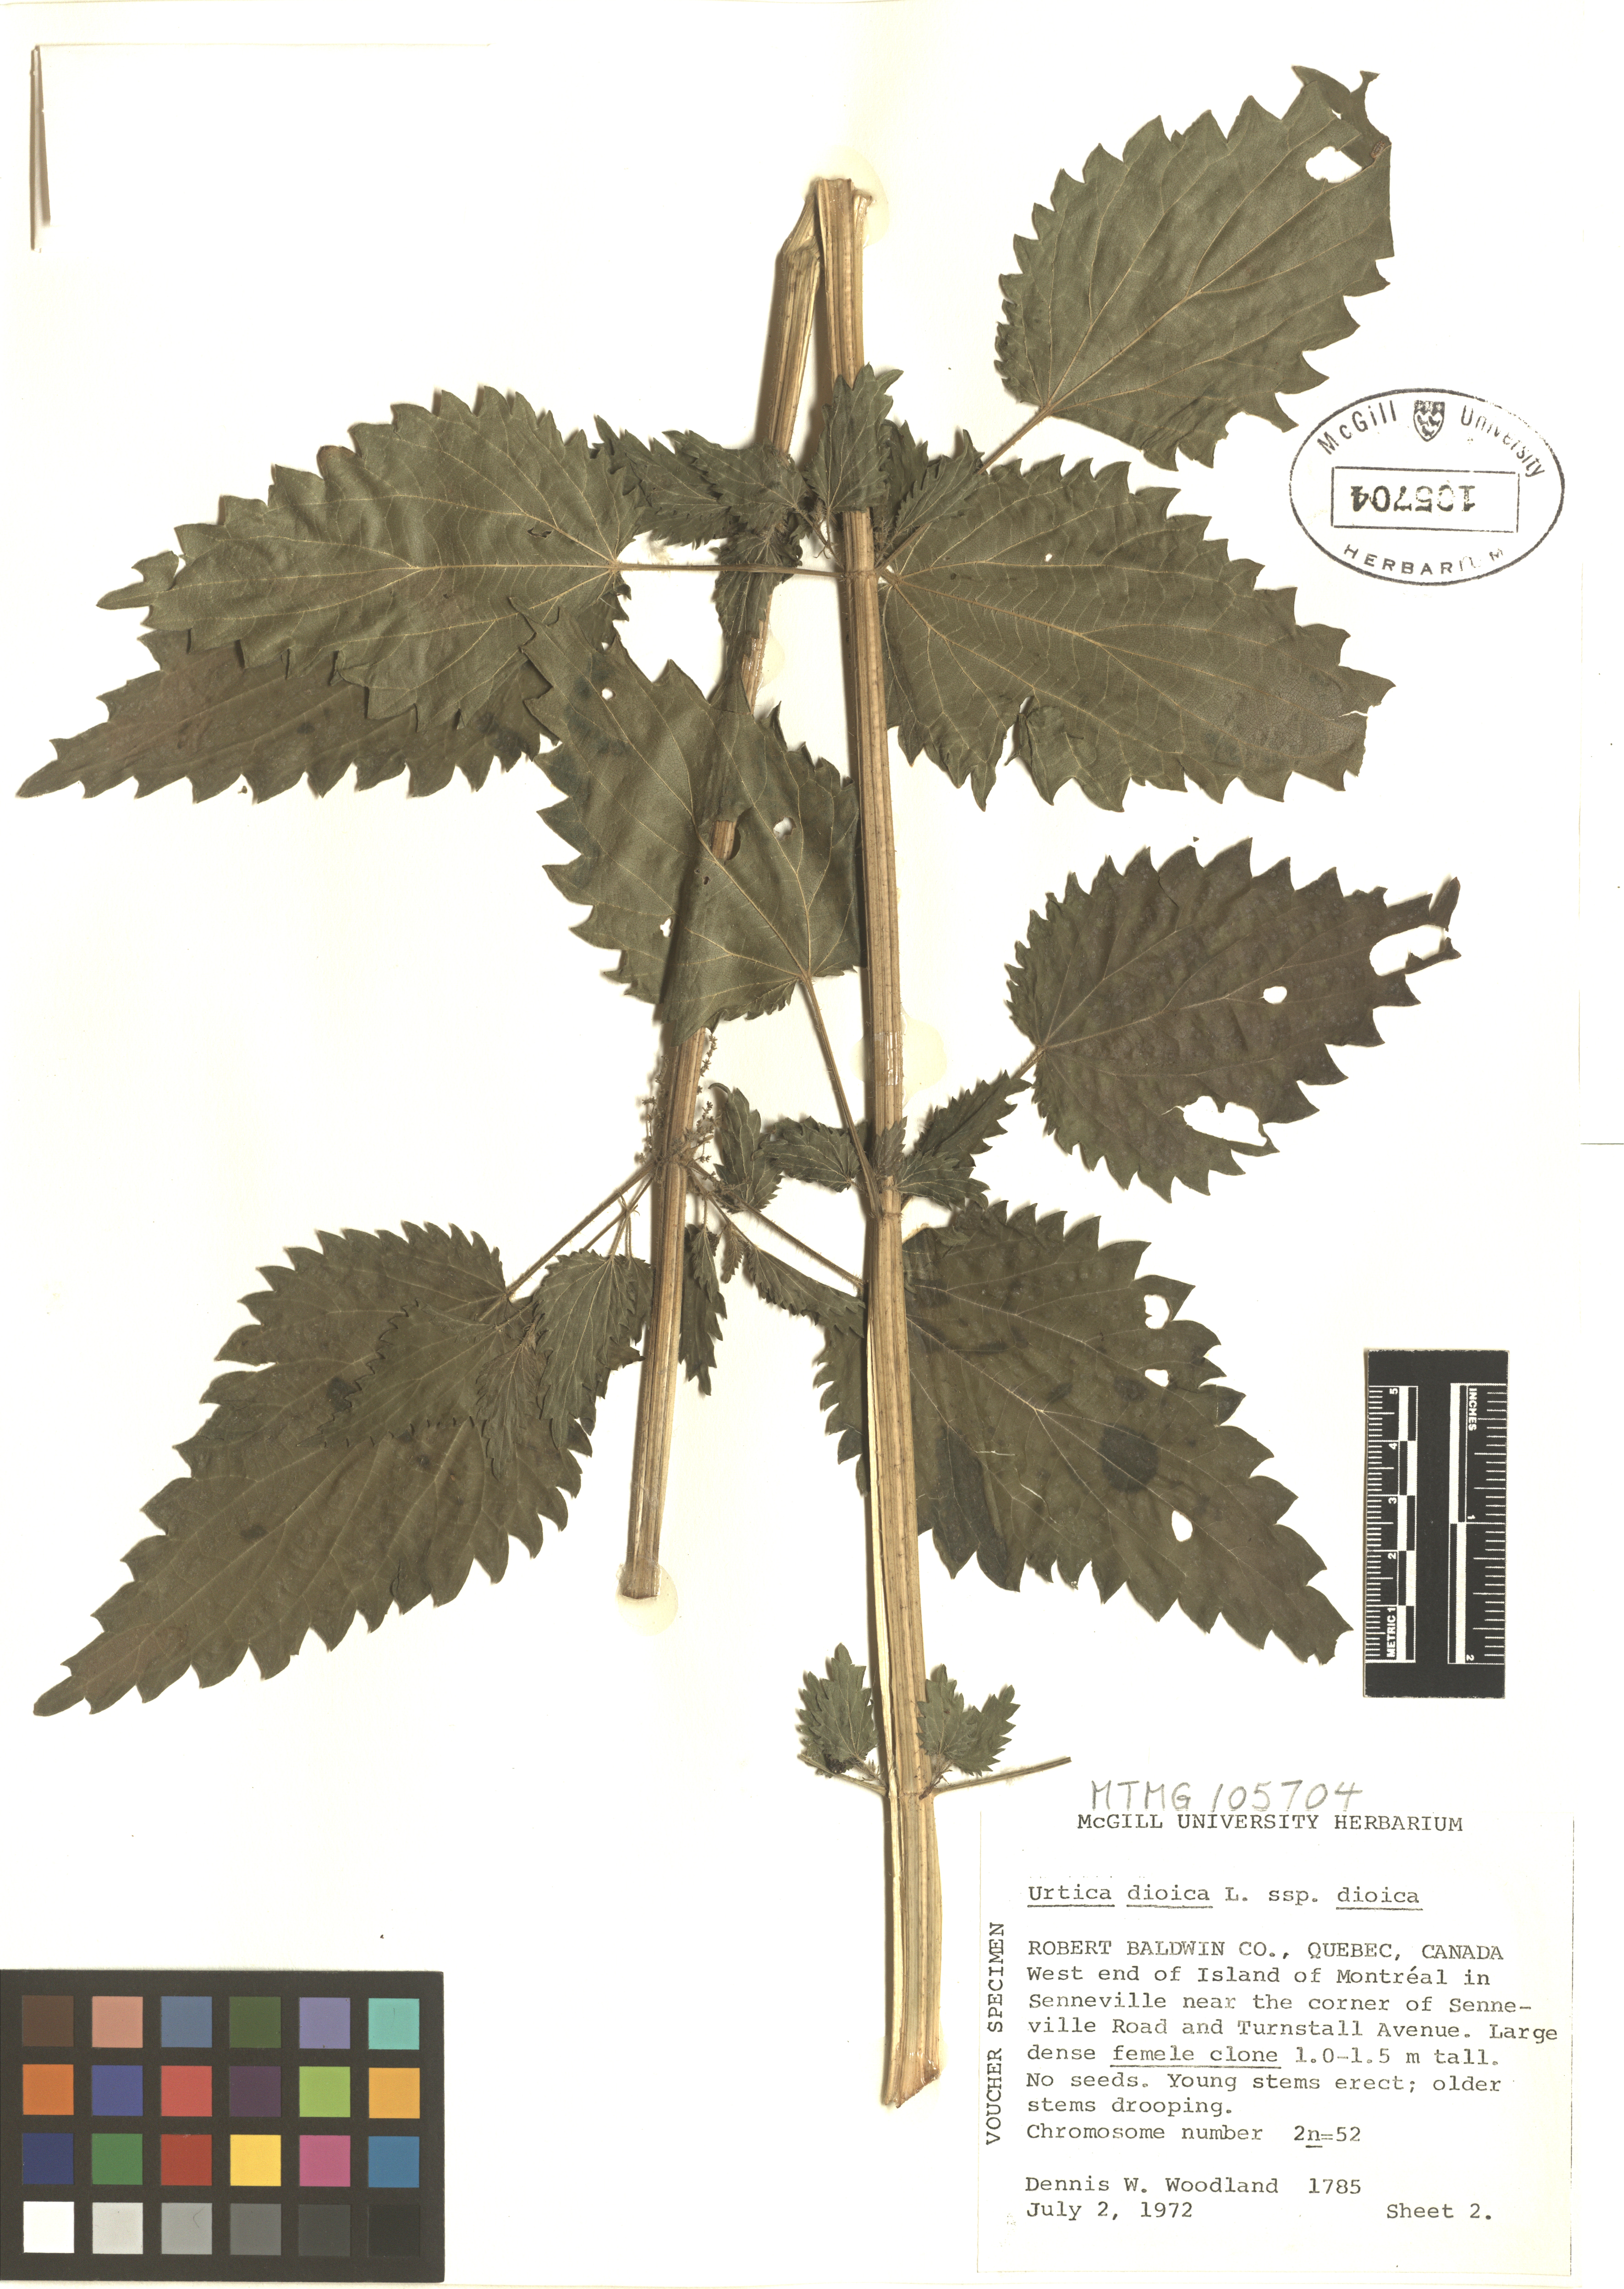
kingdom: Plantae
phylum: Tracheophyta
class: Magnoliopsida
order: Rosales
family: Urticaceae
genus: Urtica
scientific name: Urtica dioica
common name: Common nettle
